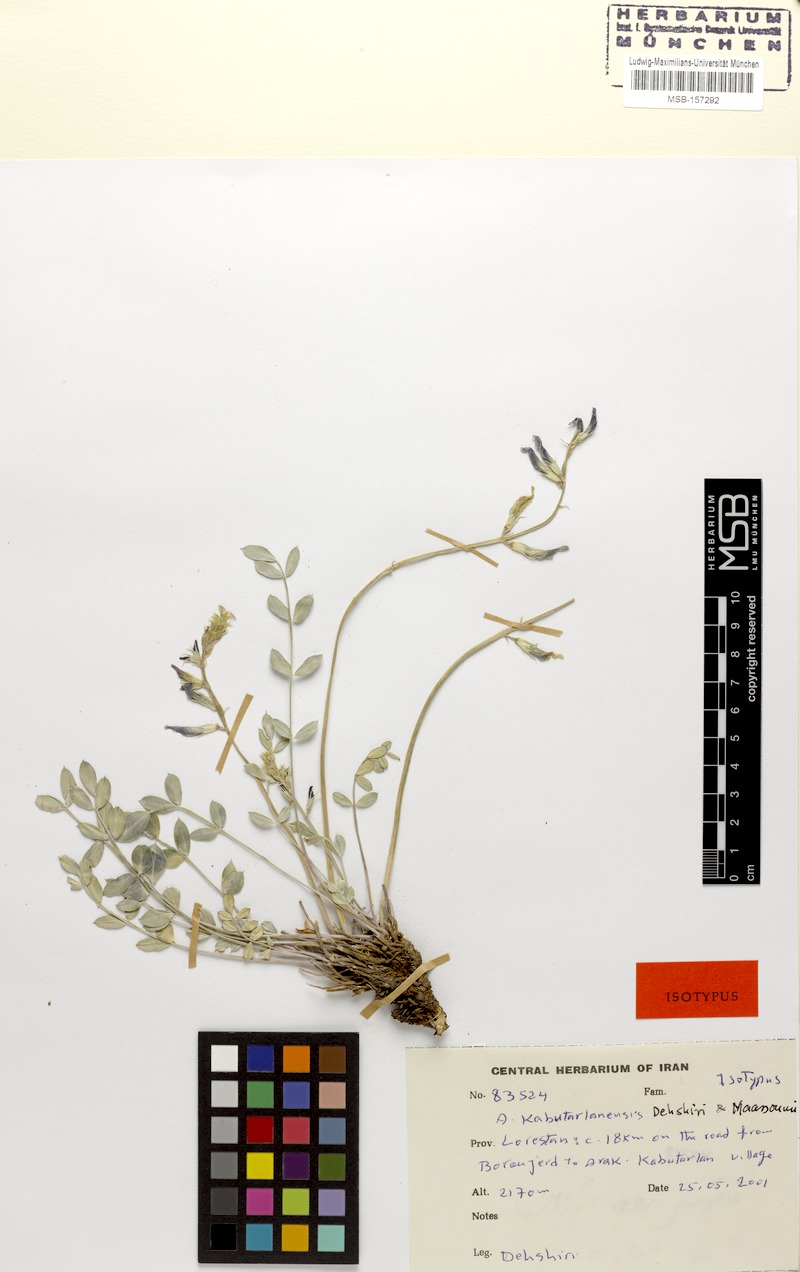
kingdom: Plantae
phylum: Tracheophyta
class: Magnoliopsida
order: Fabales
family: Fabaceae
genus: Astragalus
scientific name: Astragalus kabutarlanensis
